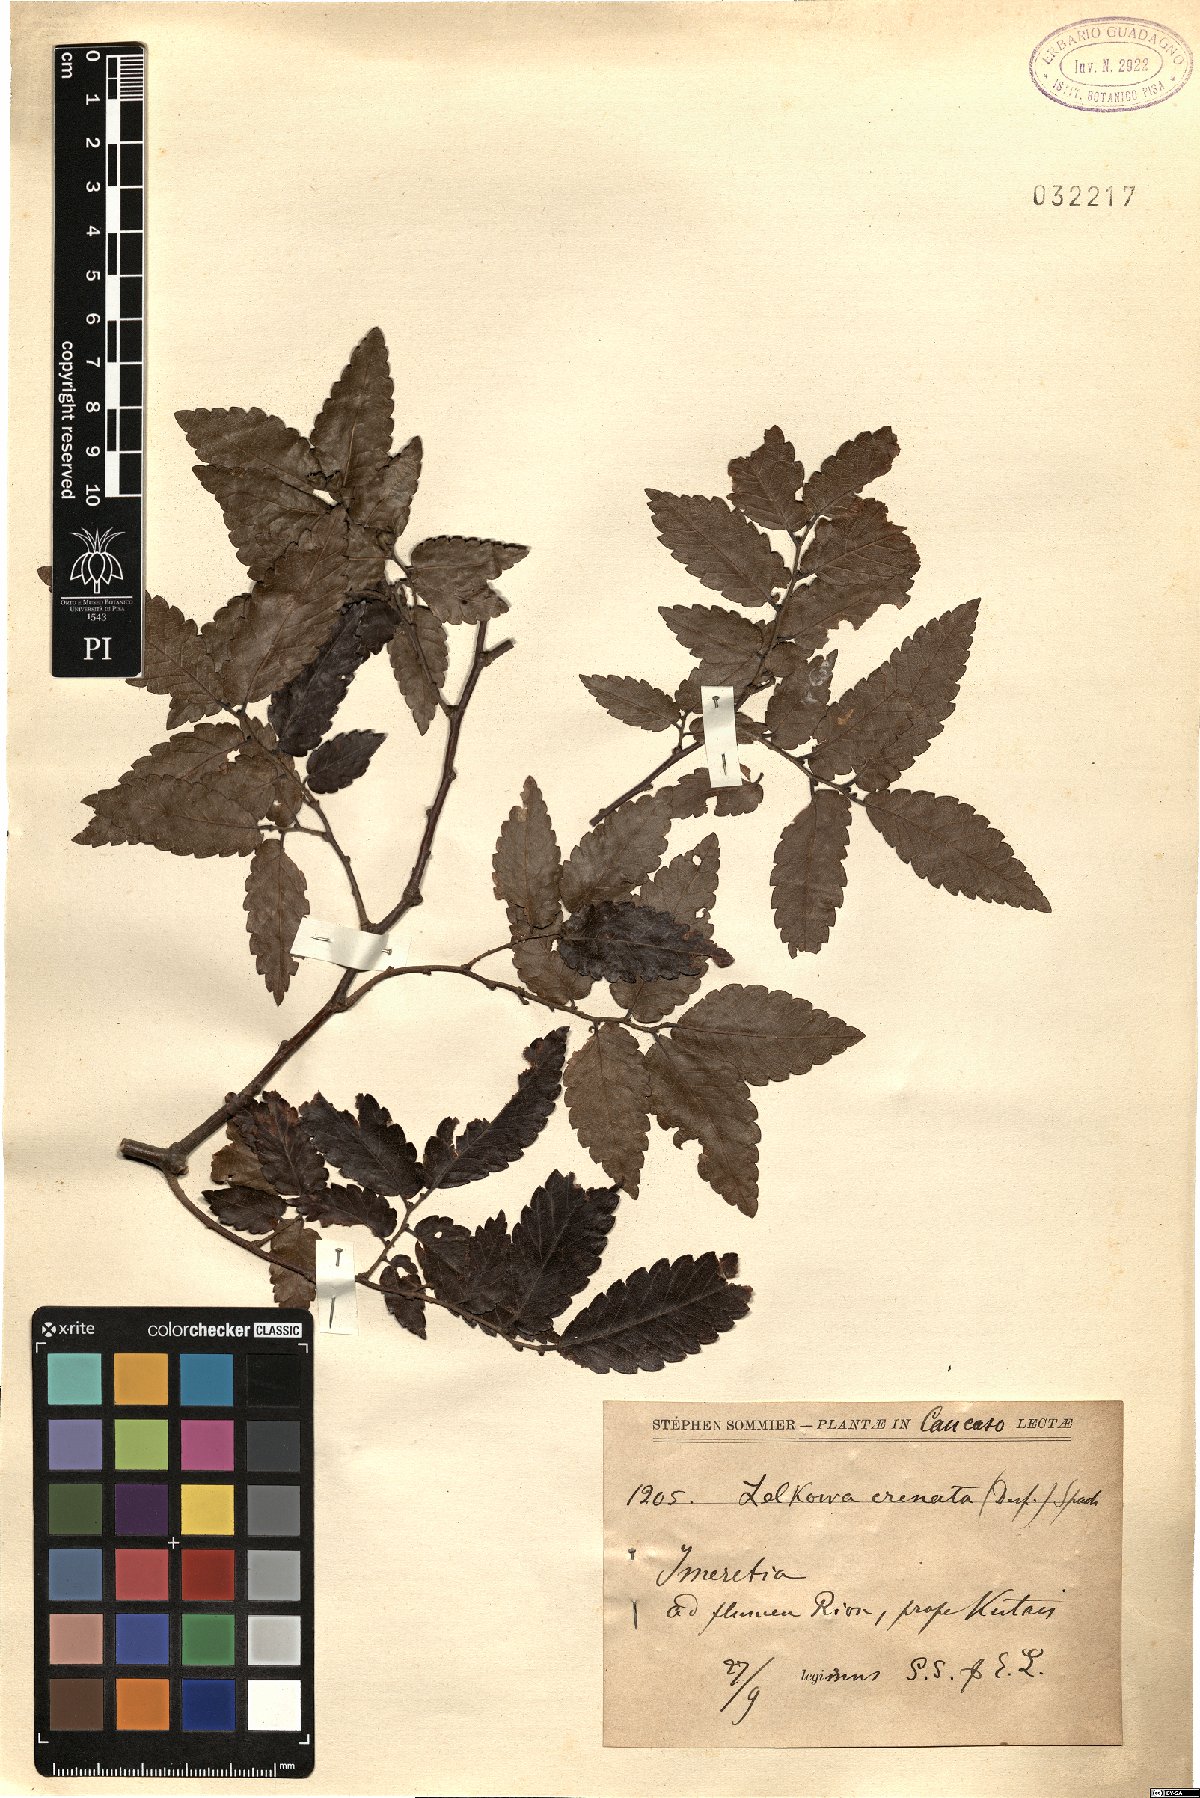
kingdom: Plantae
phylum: Tracheophyta
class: Magnoliopsida
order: Rosales
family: Ulmaceae
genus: Zelkova
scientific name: Zelkova carpinifolia
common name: Caucasian elm
